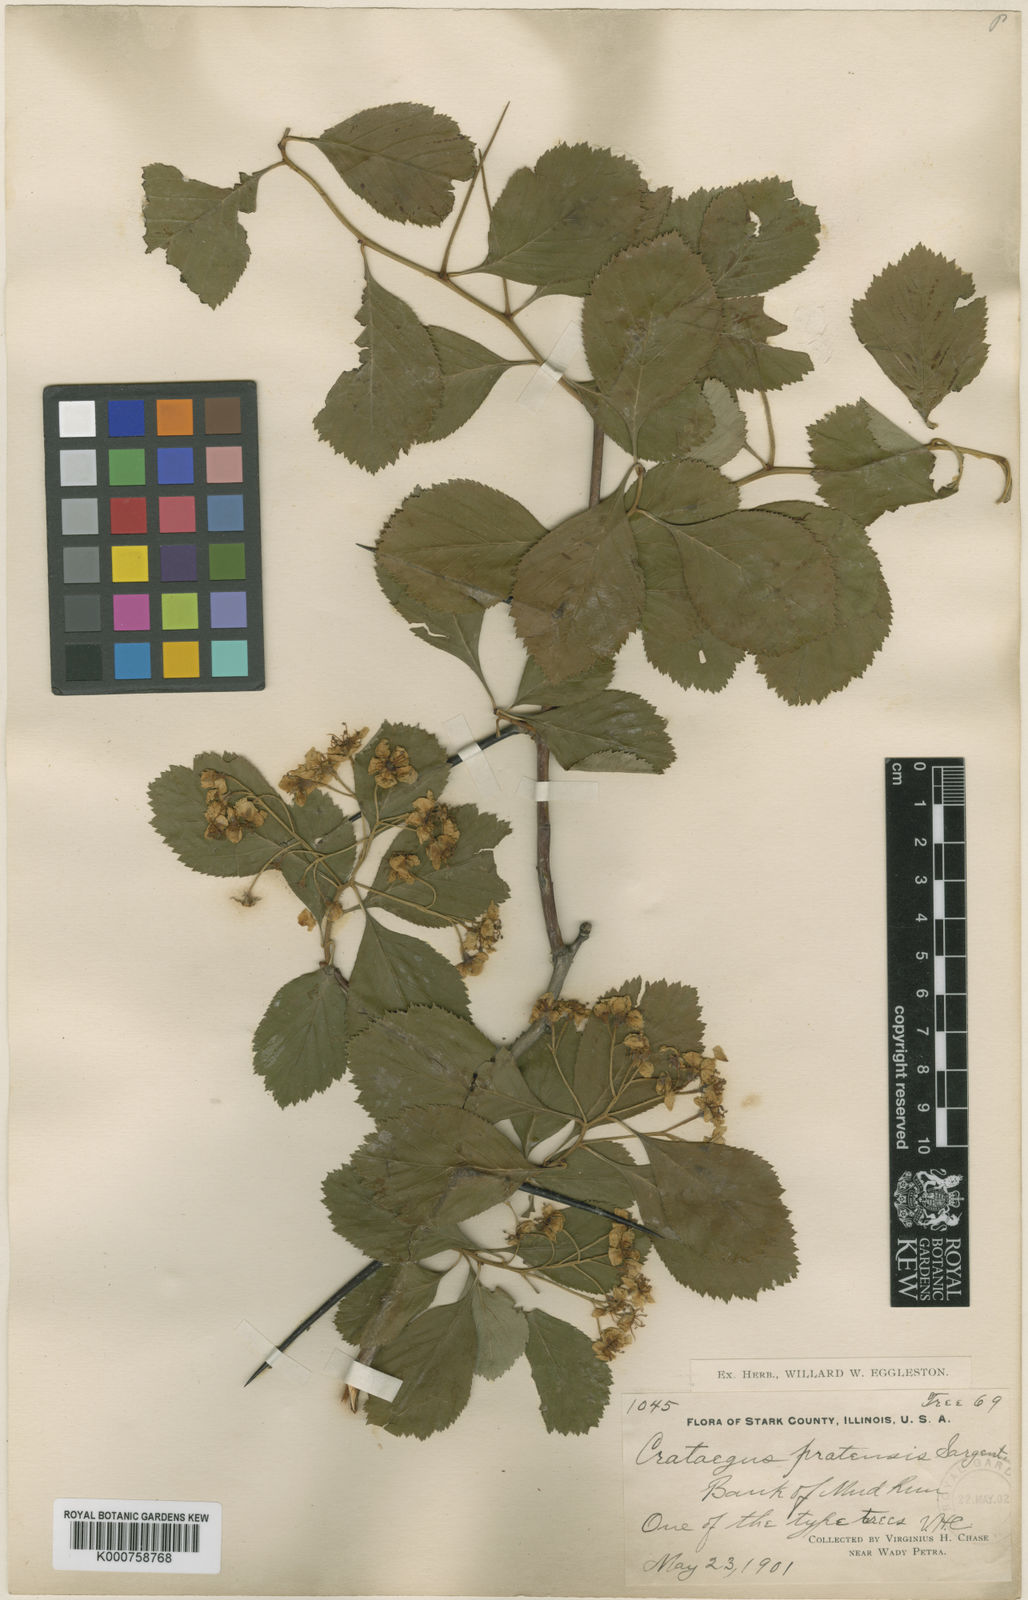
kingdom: Plantae
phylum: Tracheophyta
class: Magnoliopsida
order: Rosales
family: Rosaceae
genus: Crataegus
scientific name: Crataegus punctata
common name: Dotted hawthorn
